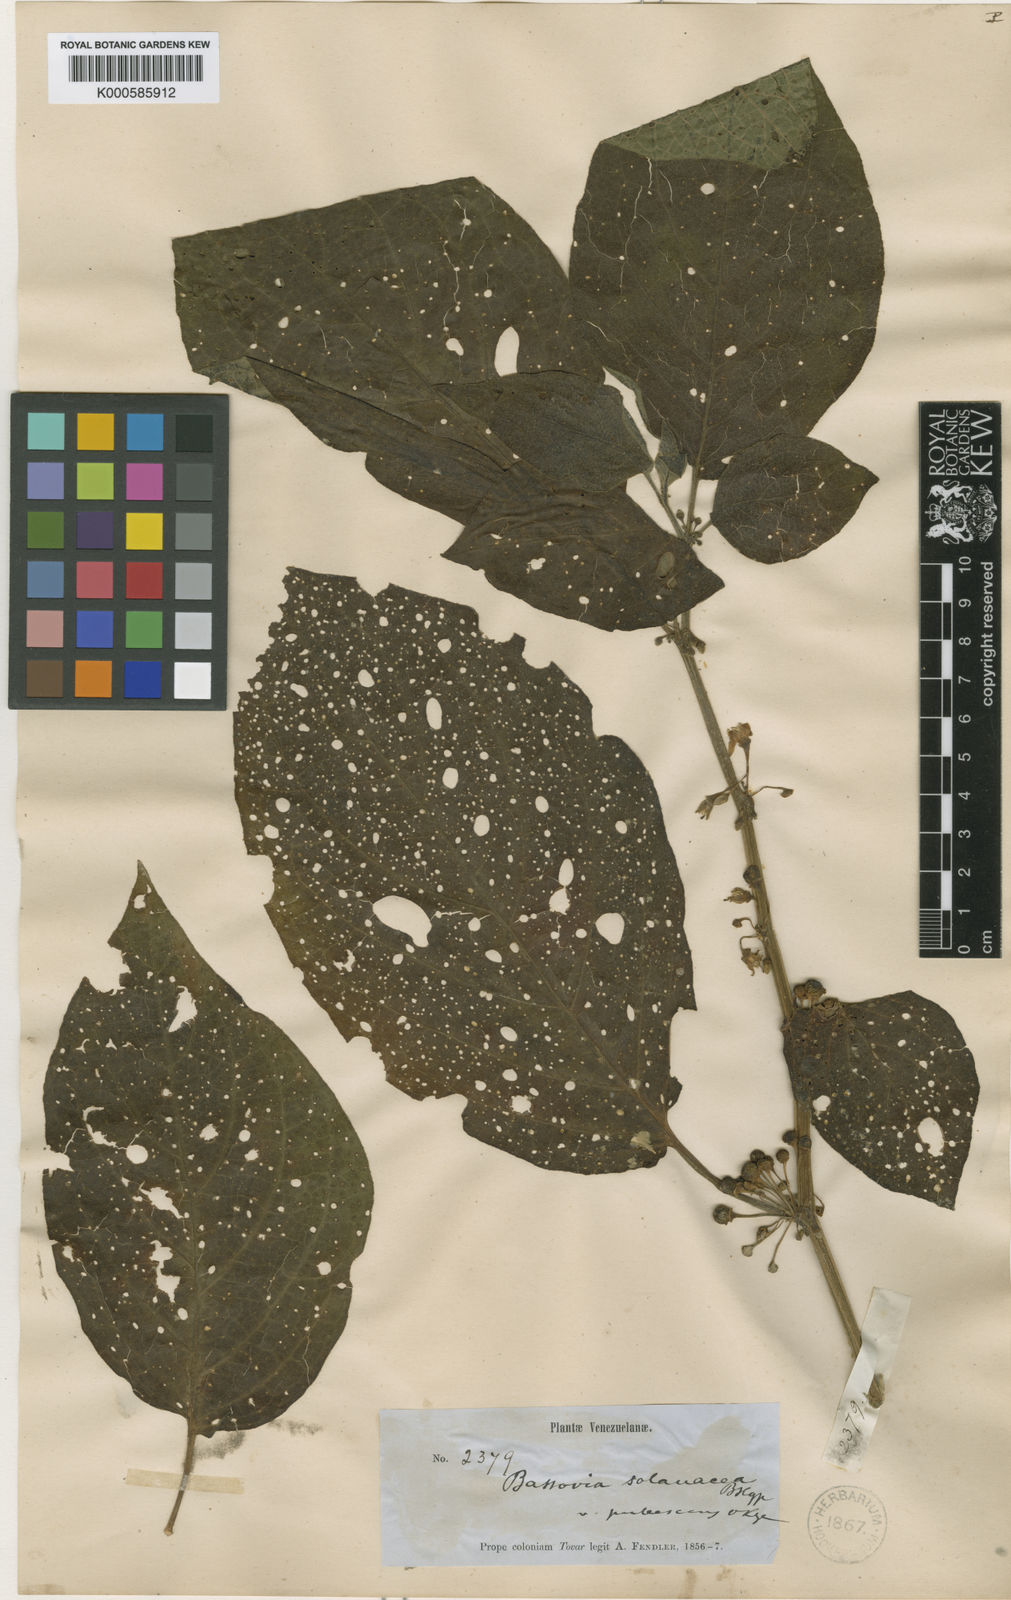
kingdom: Plantae
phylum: Tracheophyta
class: Magnoliopsida
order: Solanales
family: Solanaceae
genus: Witheringia
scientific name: Witheringia
